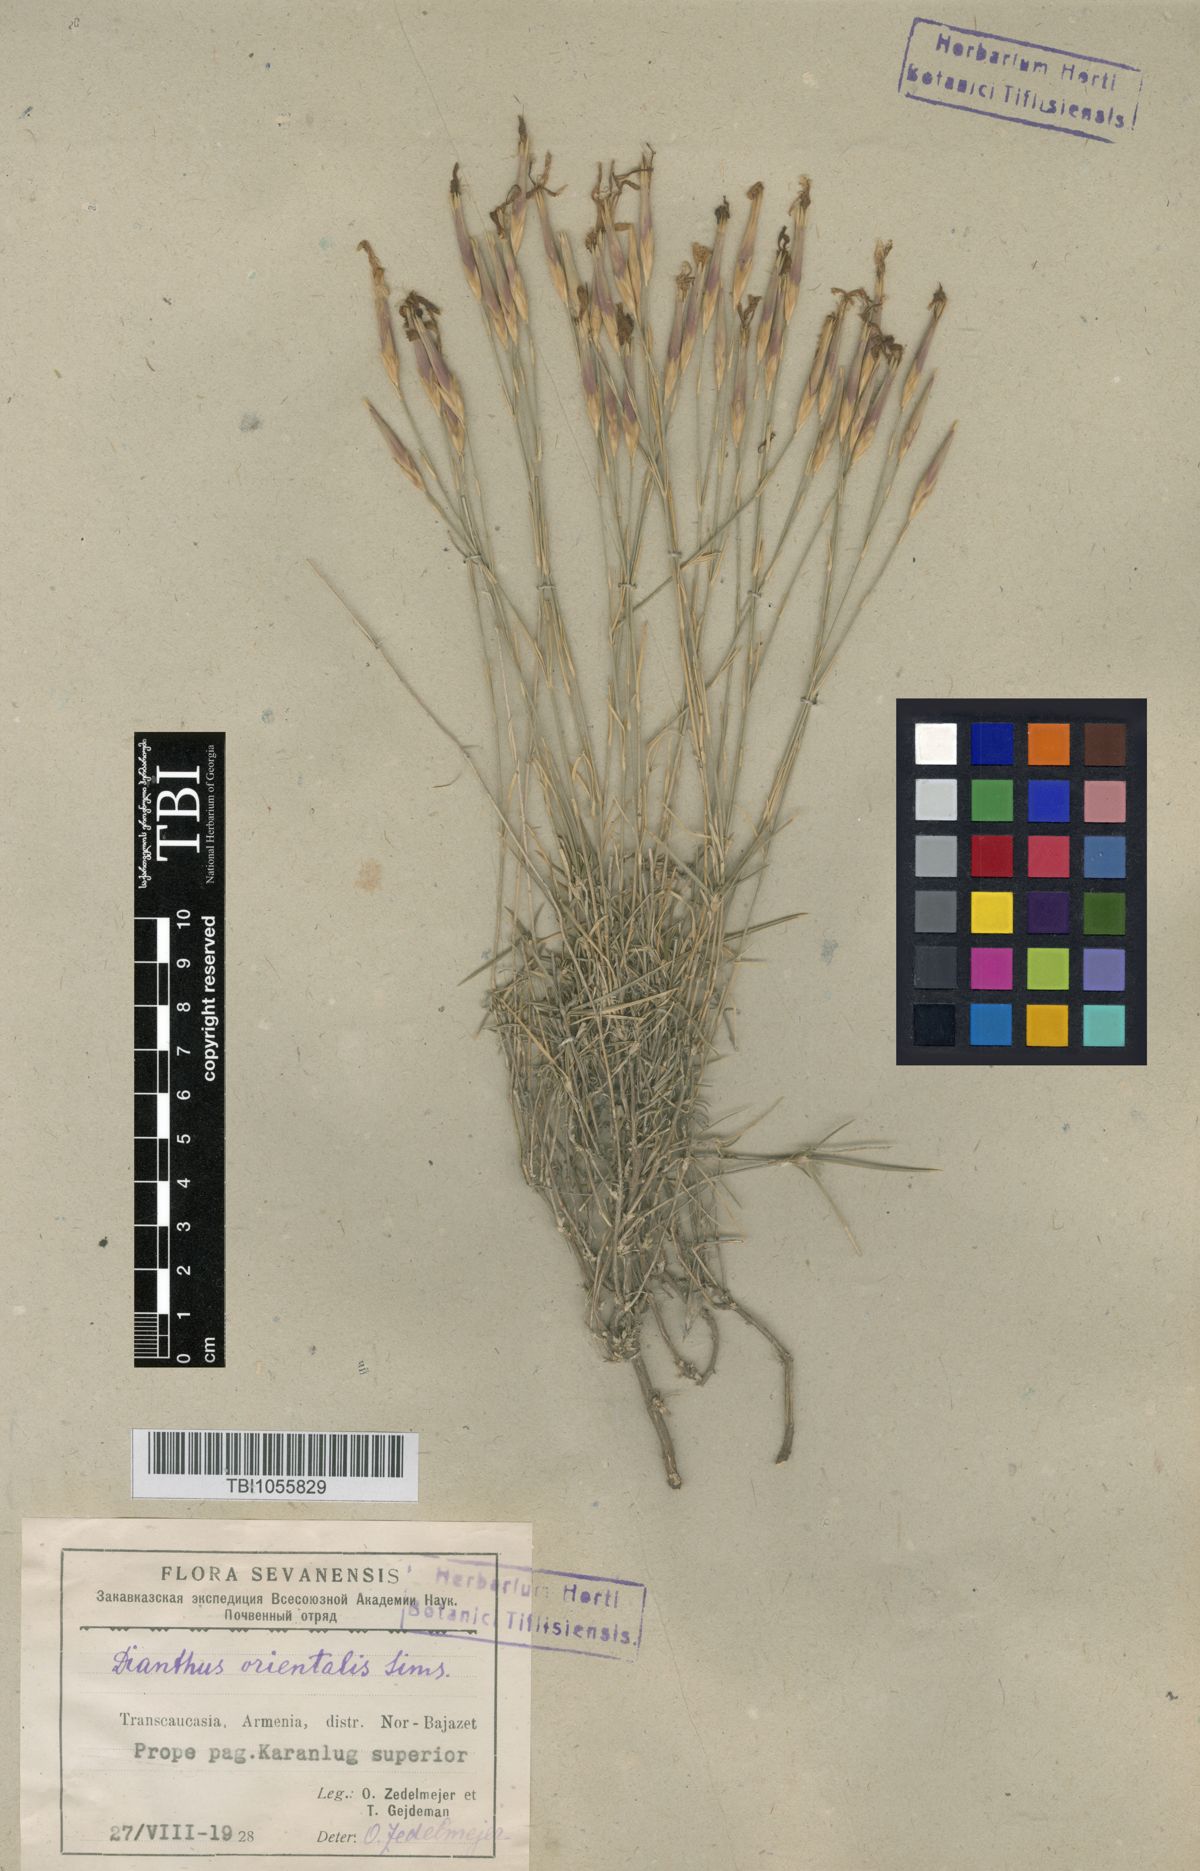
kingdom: Plantae
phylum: Tracheophyta
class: Magnoliopsida
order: Caryophyllales
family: Caryophyllaceae
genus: Dianthus
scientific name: Dianthus orientalis
